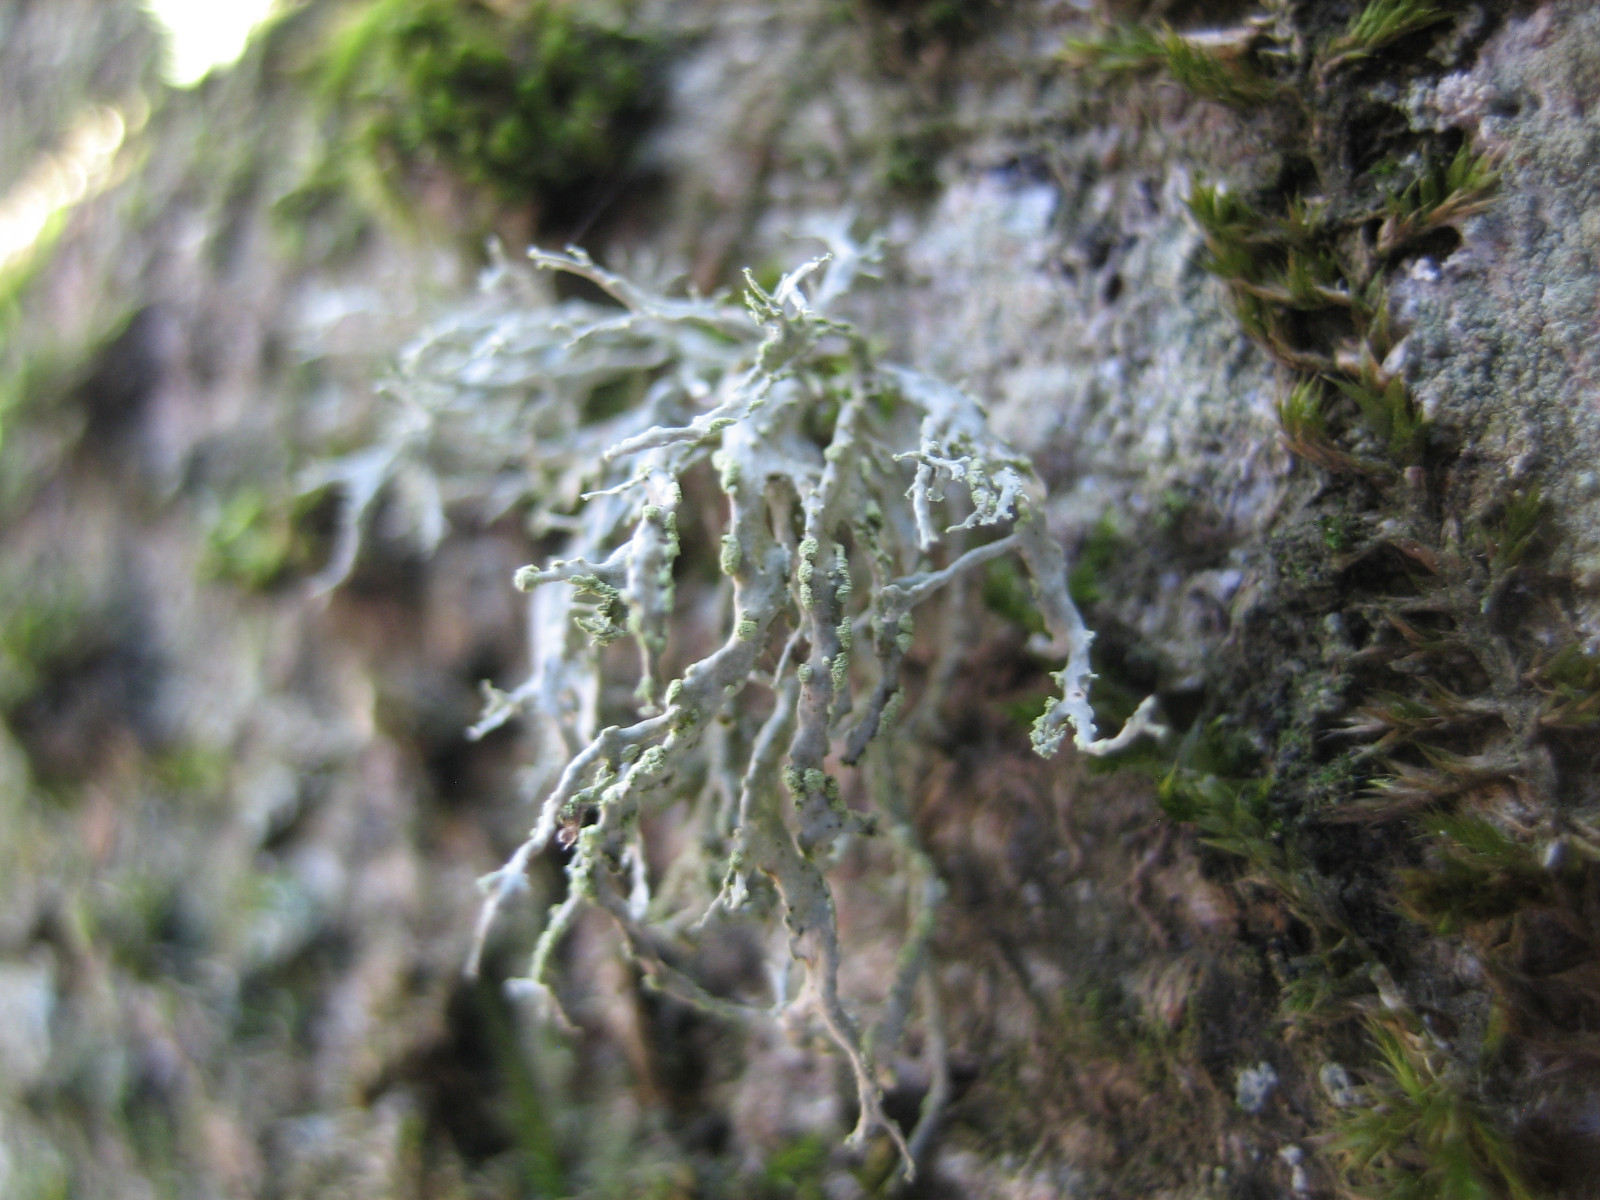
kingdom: Fungi
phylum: Ascomycota
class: Lecanoromycetes
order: Lecanorales
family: Ramalinaceae
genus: Ramalina
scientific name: Ramalina farinacea
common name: melet grenlav
